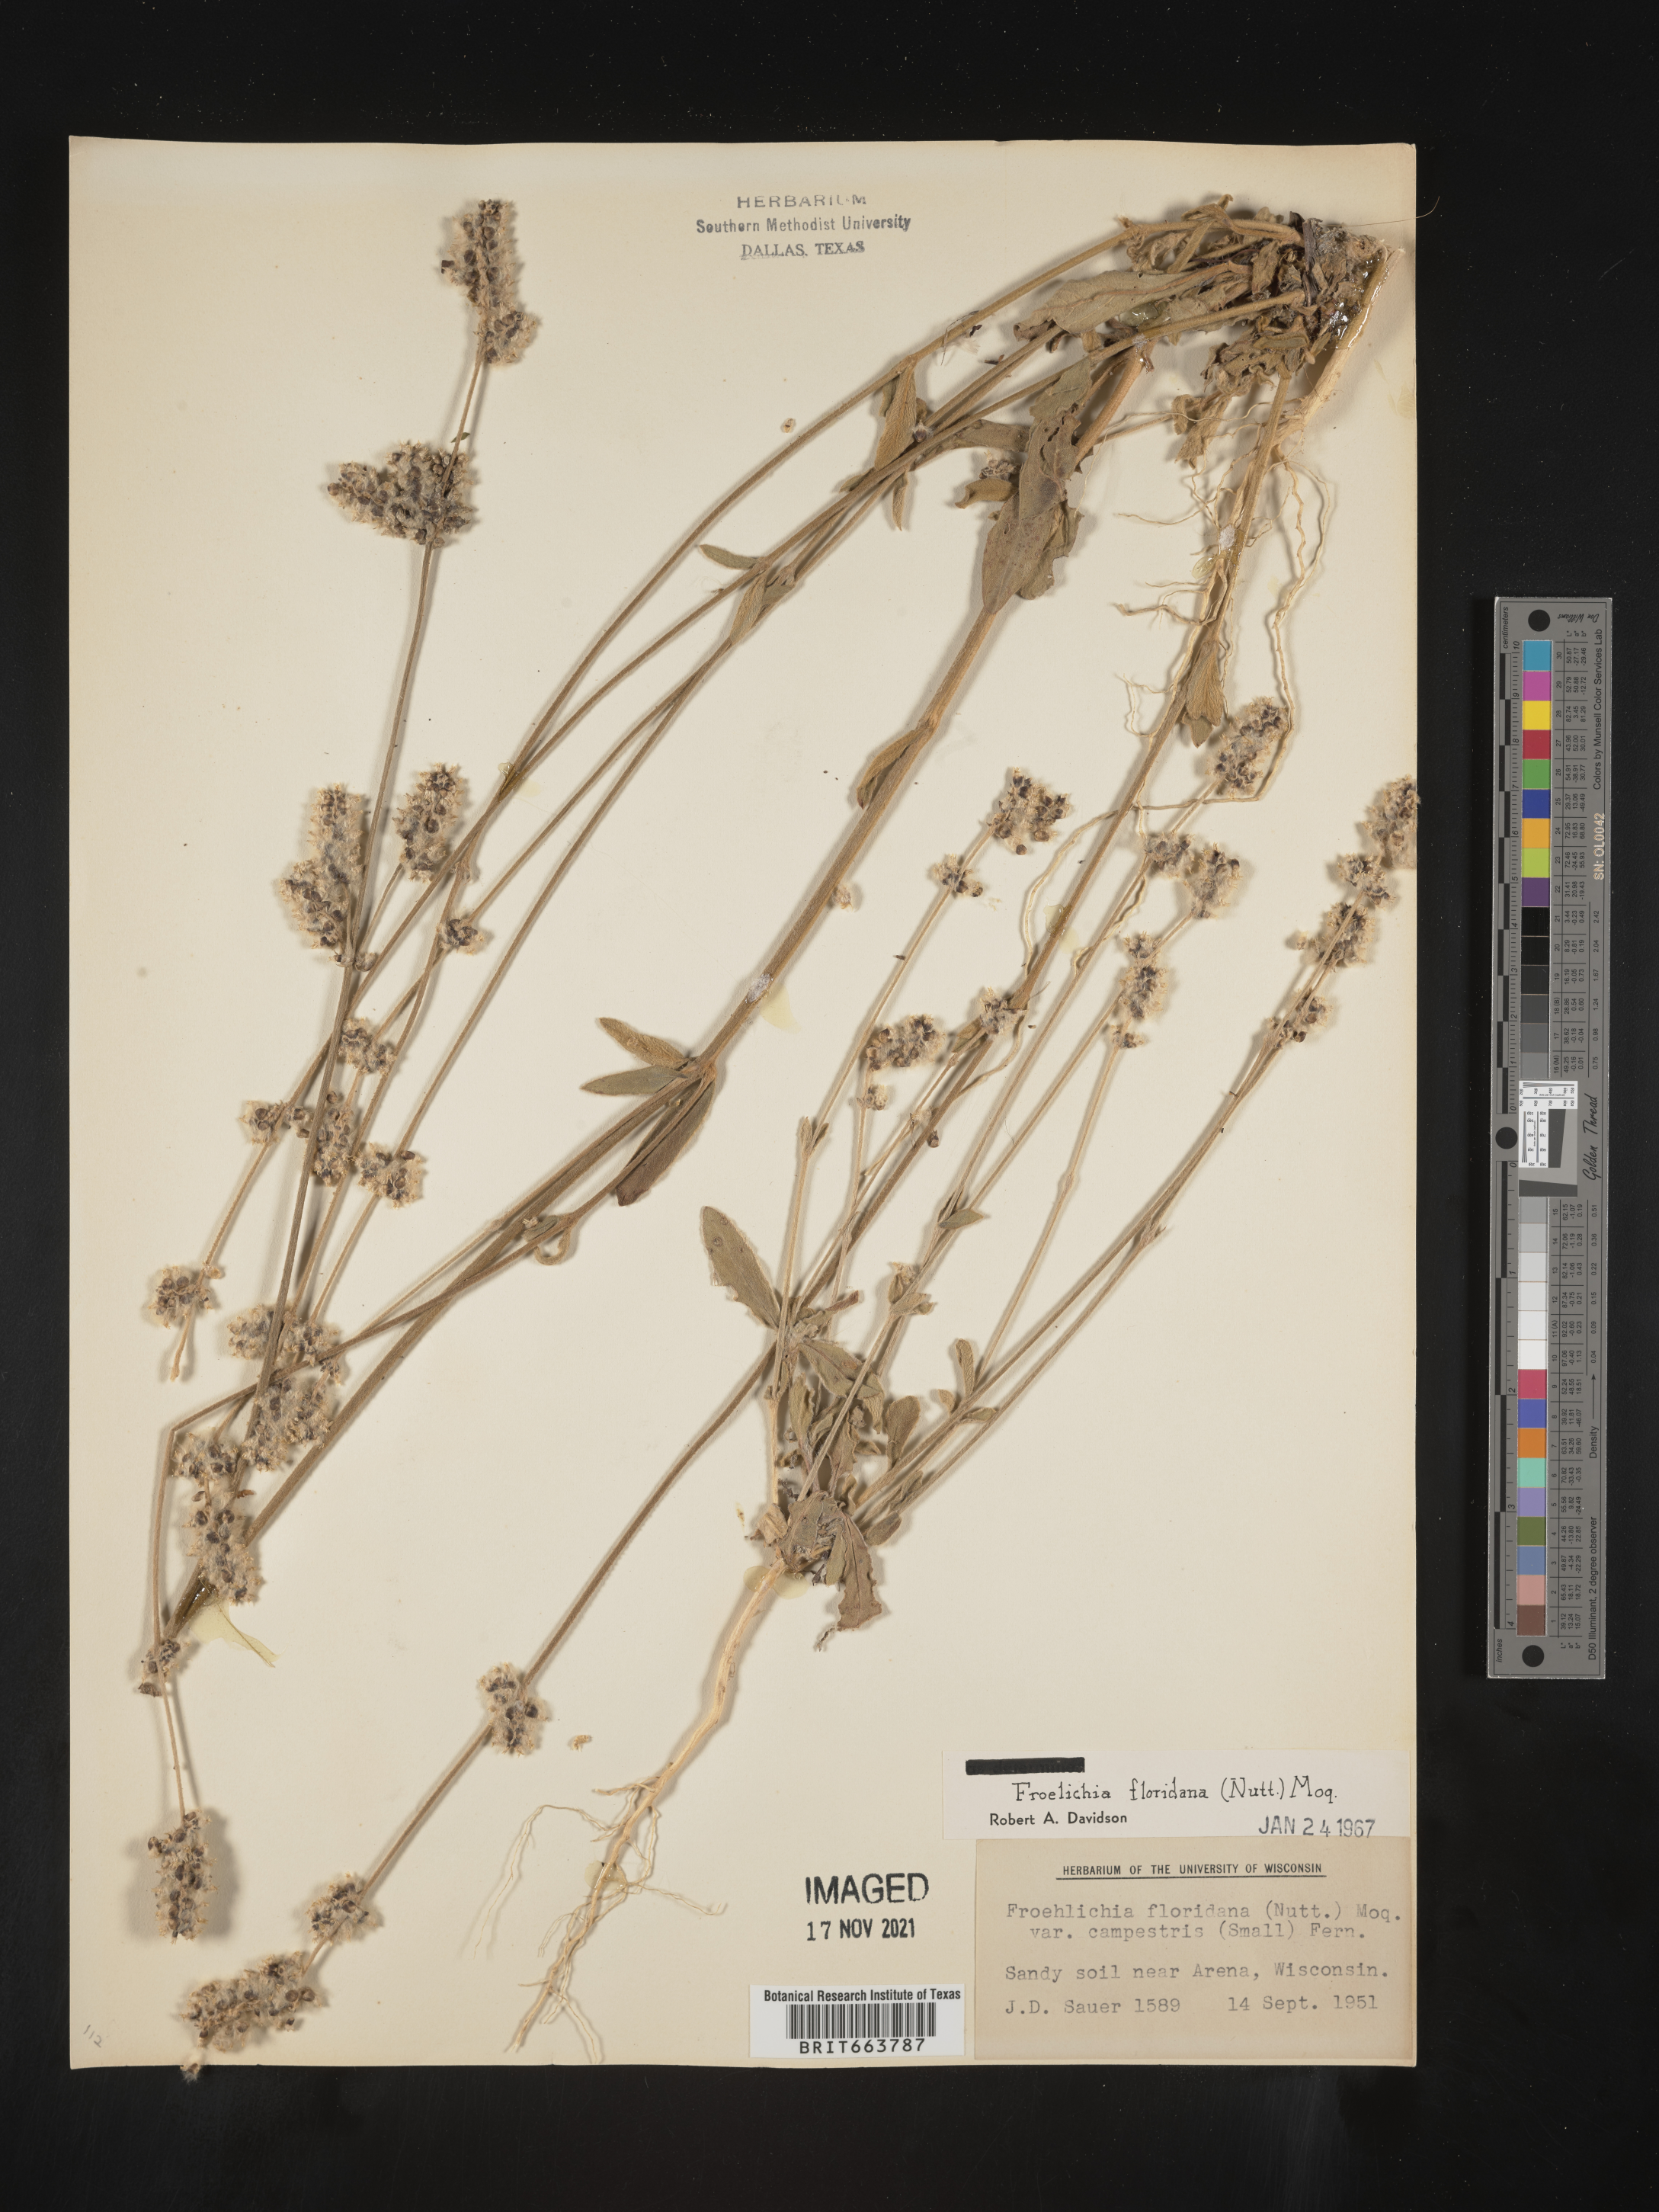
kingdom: Plantae
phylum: Tracheophyta
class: Magnoliopsida
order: Caryophyllales
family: Amaranthaceae
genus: Froelichia
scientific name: Froelichia floridana
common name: Florida snake-cotton
